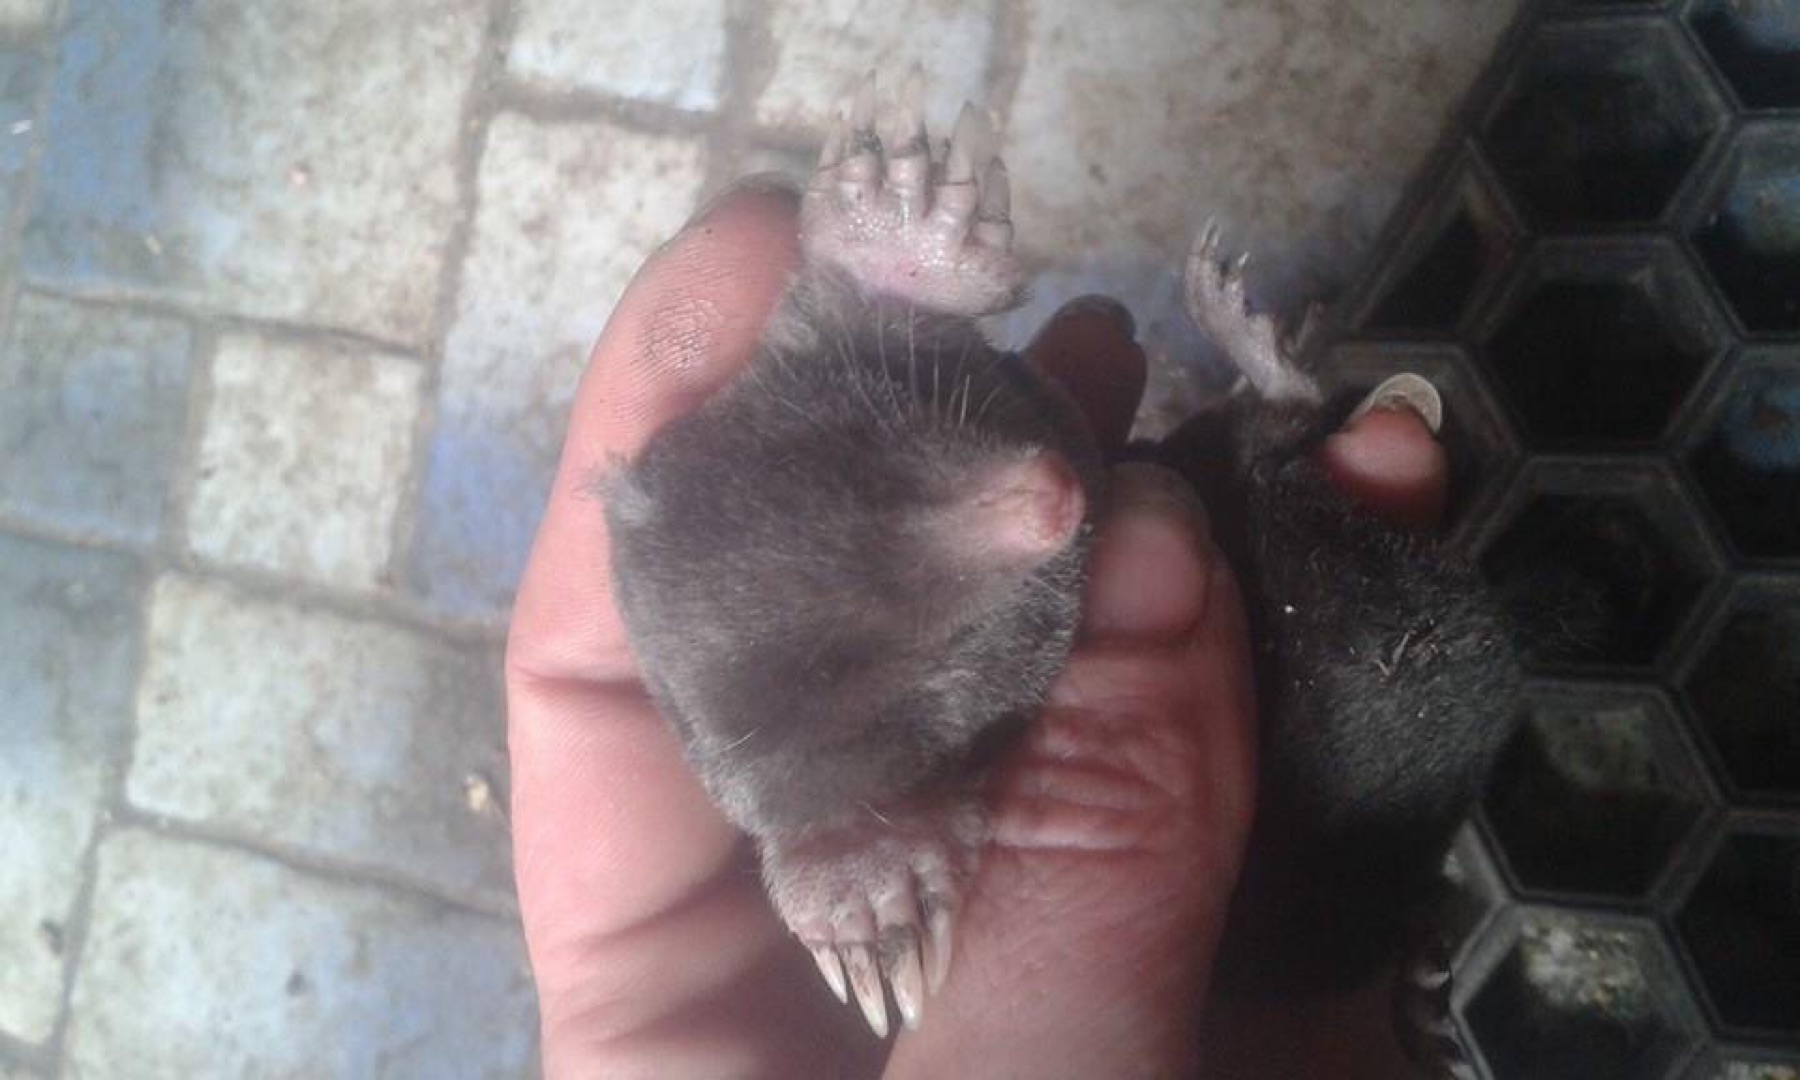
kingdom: Animalia
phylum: Chordata
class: Mammalia
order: Soricomorpha
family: Talpidae
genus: Talpa
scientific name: Talpa europaea
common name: Muldvarp
